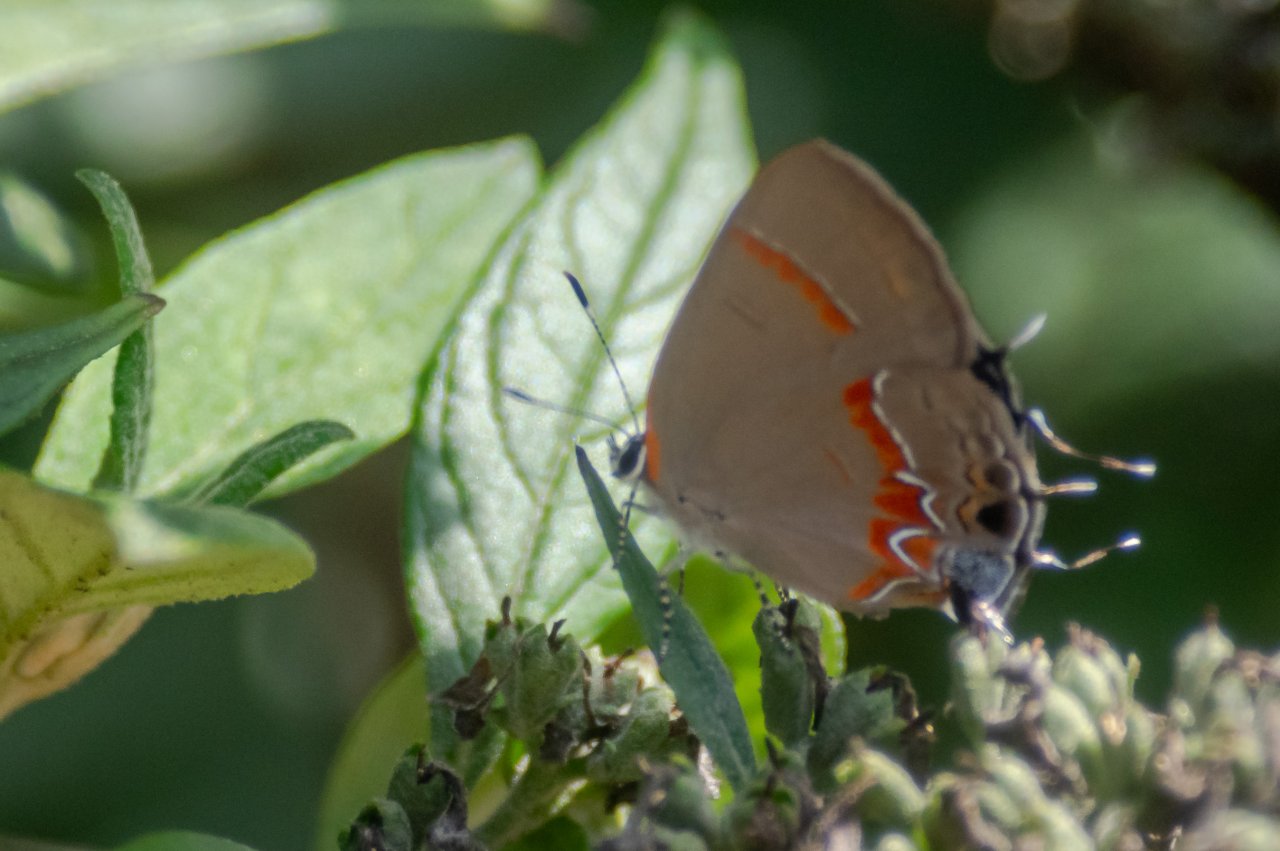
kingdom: Animalia
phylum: Arthropoda
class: Insecta
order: Lepidoptera
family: Lycaenidae
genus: Calycopis
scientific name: Calycopis cecrops
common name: Red-banded Hairstreak
